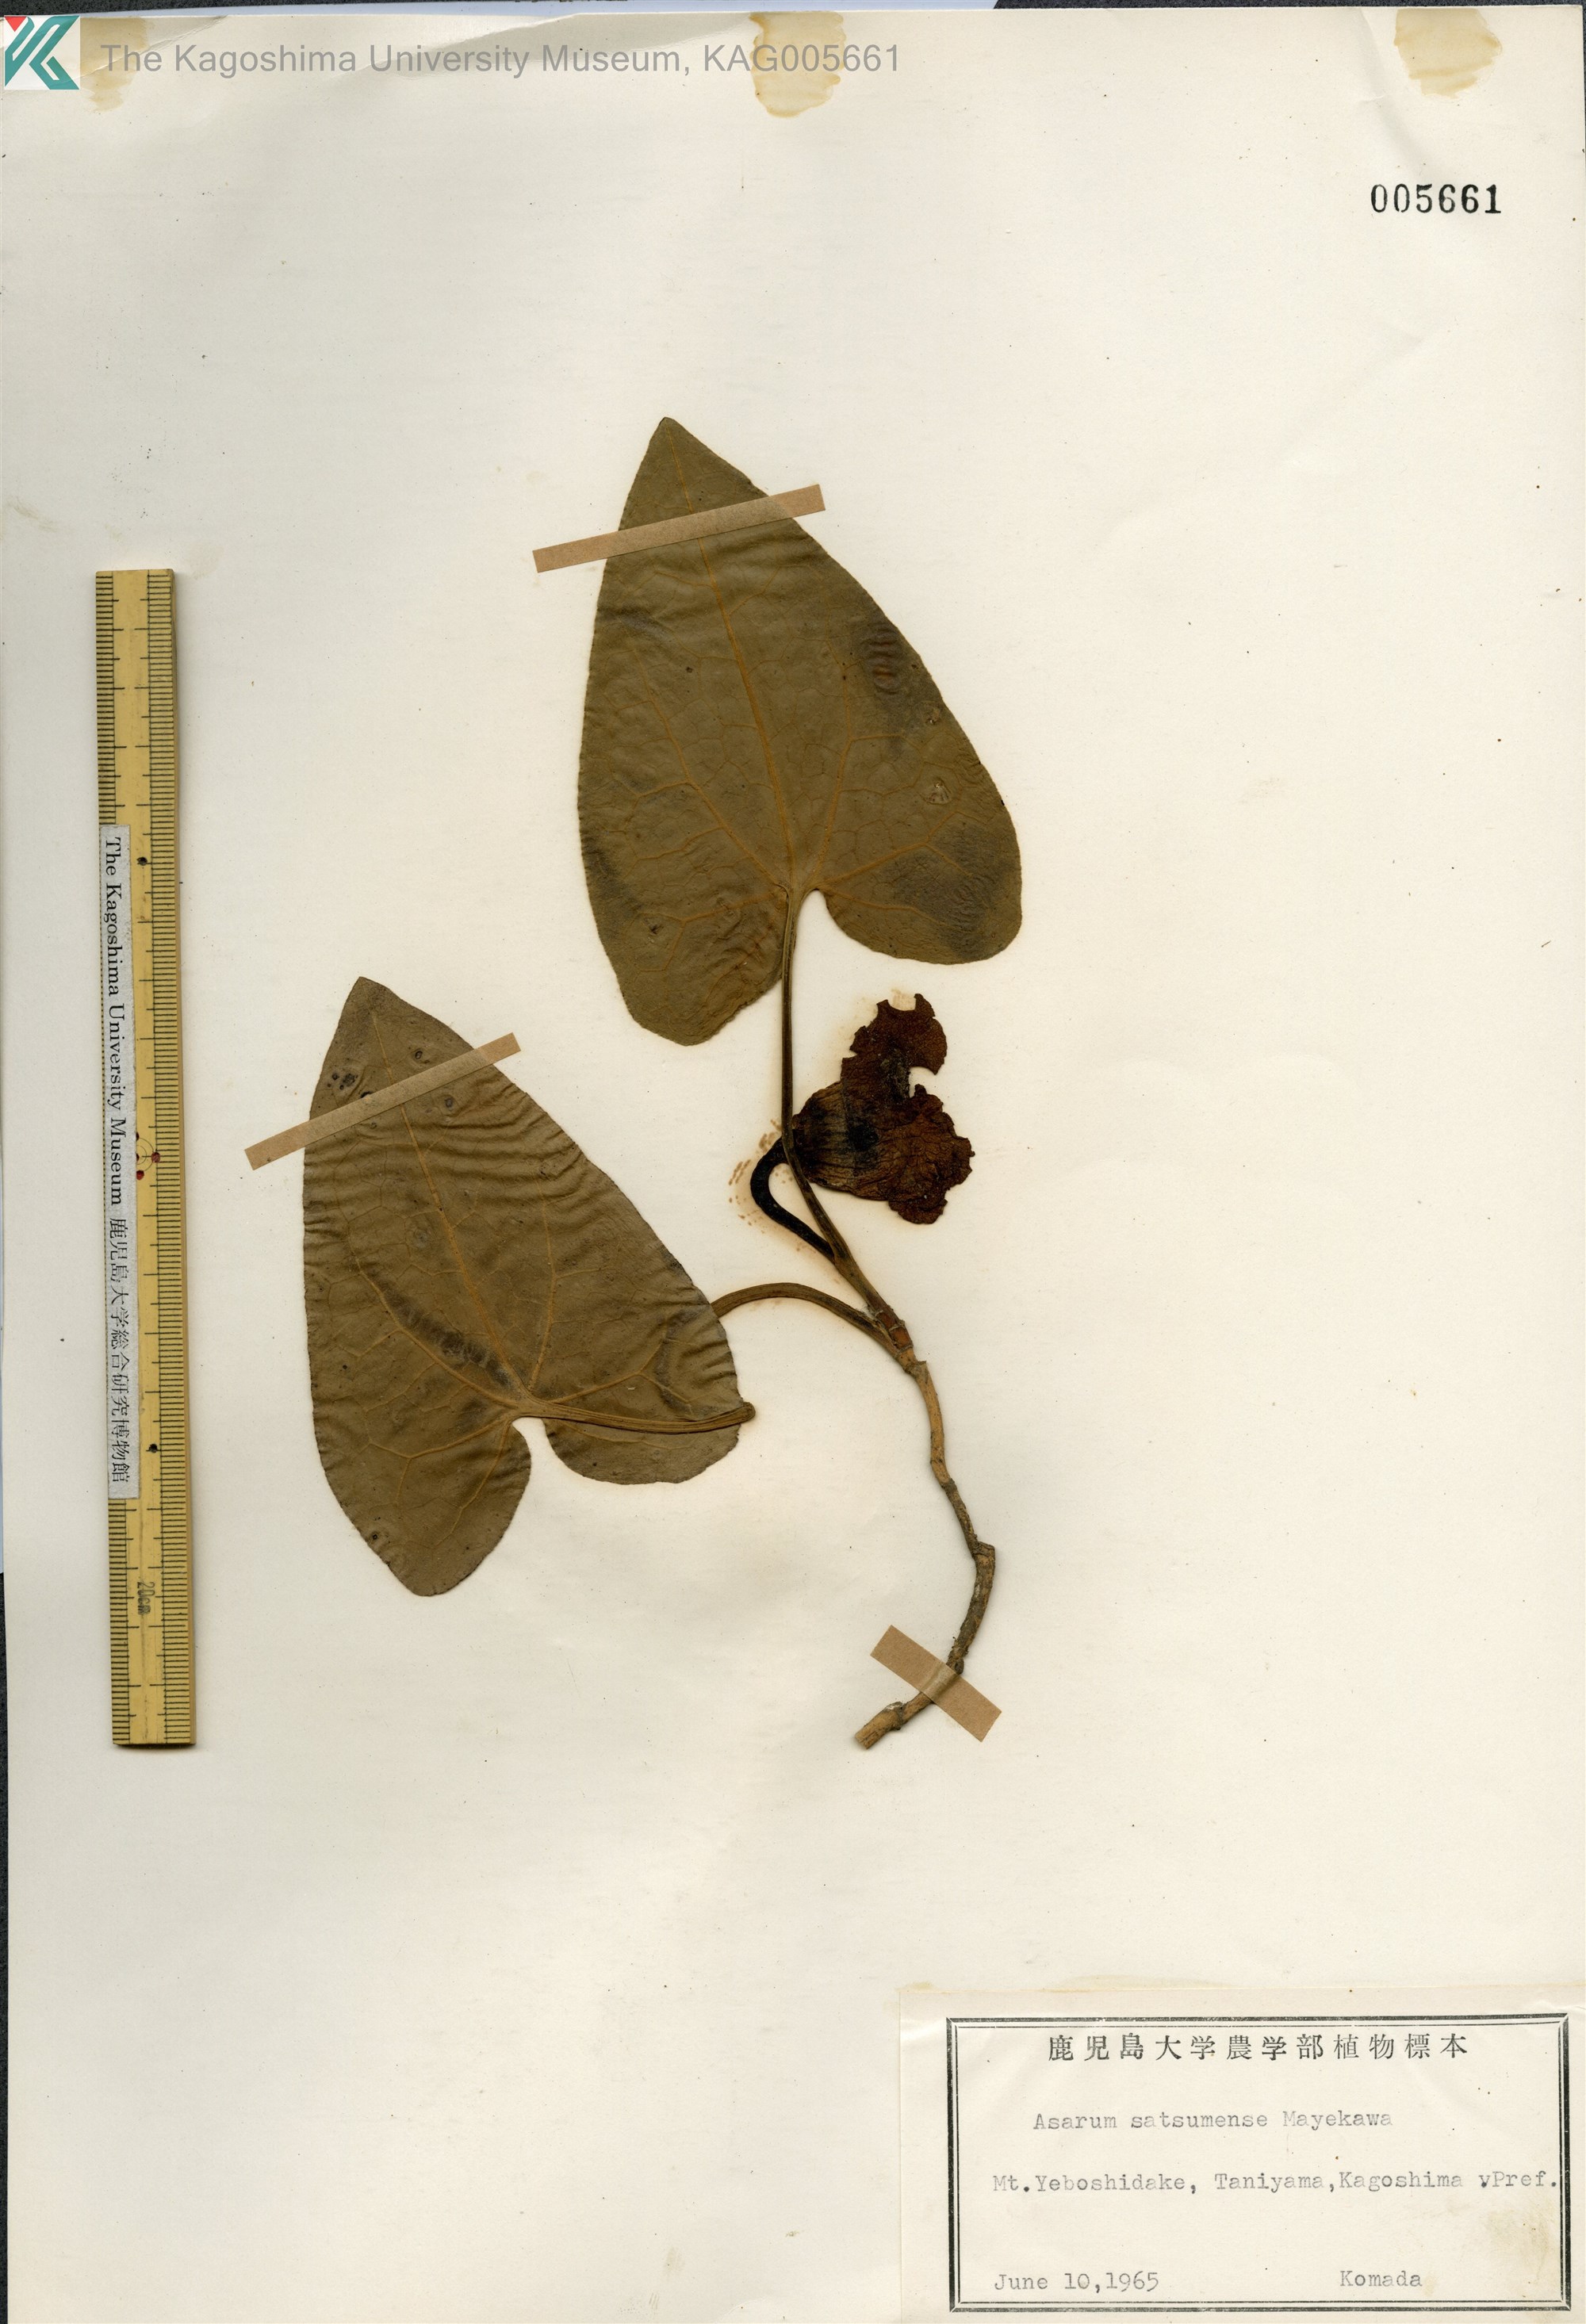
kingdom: Plantae
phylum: Tracheophyta
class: Magnoliopsida
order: Piperales
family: Aristolochiaceae
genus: Asarum
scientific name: Asarum satsumense
